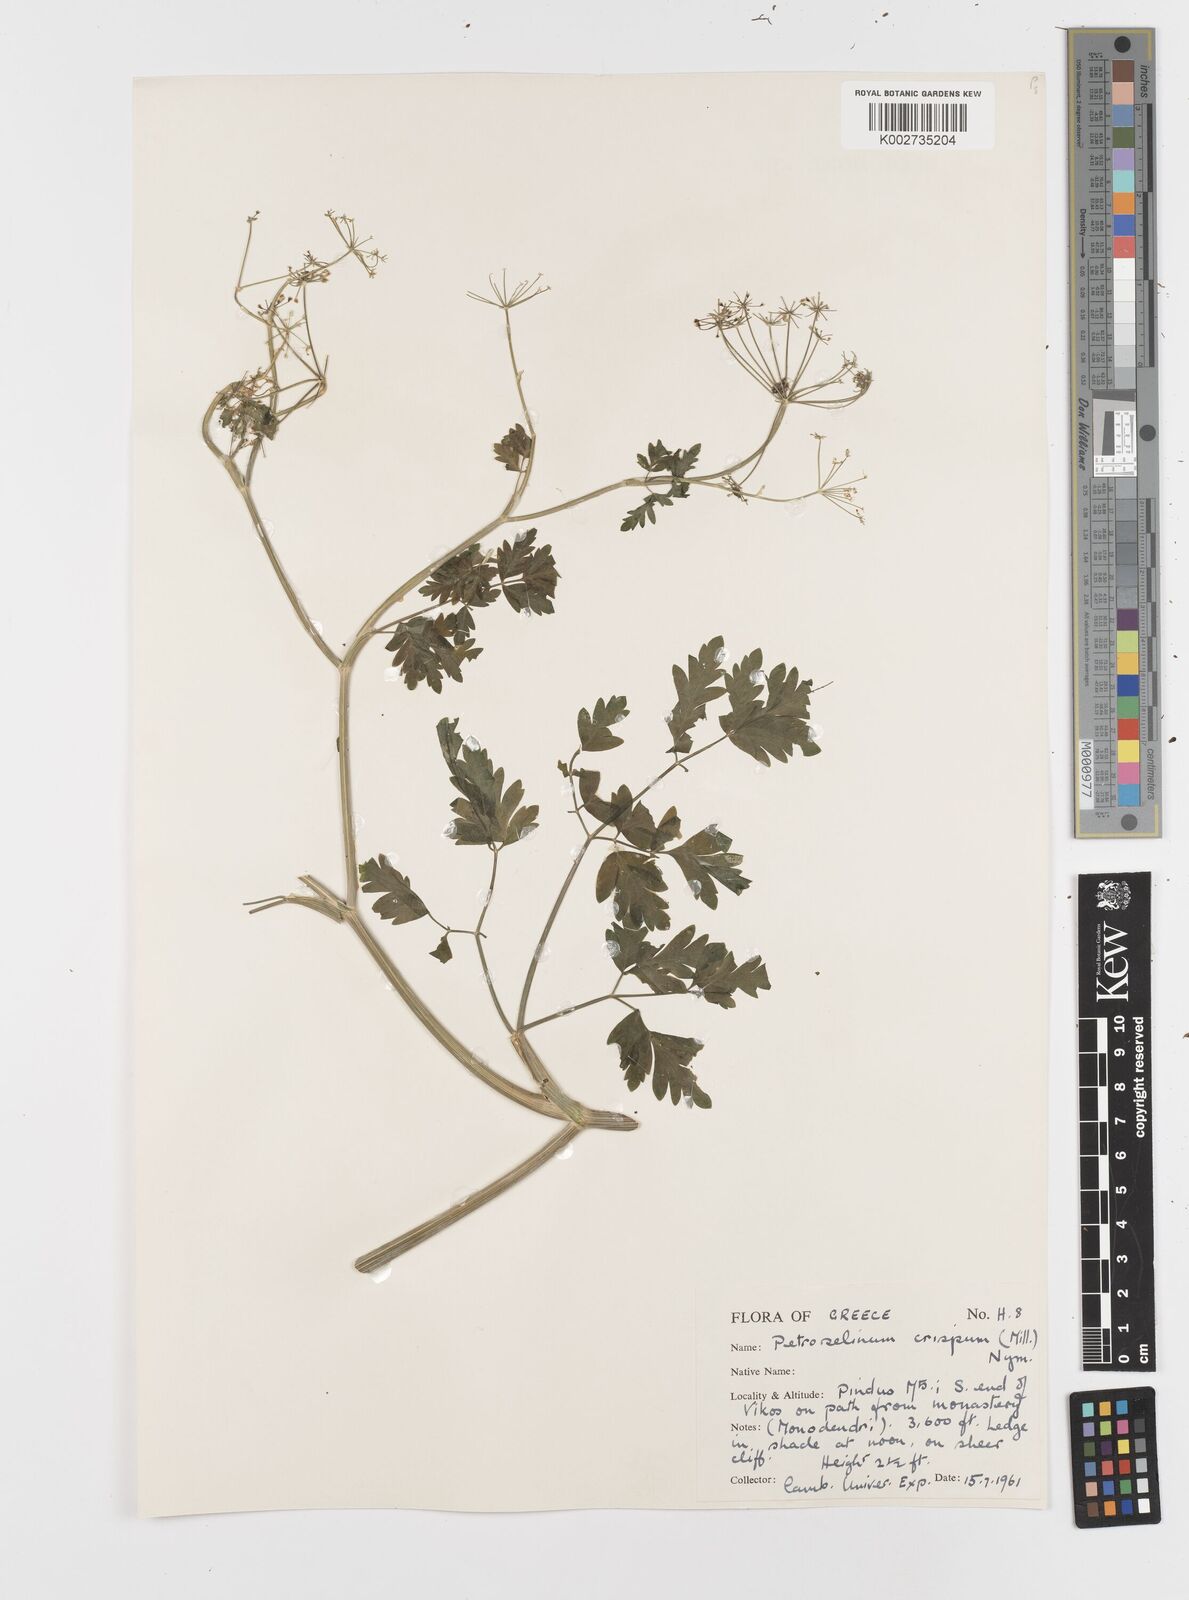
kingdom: Plantae
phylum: Tracheophyta
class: Magnoliopsida
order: Apiales
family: Apiaceae
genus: Petroselinum
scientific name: Petroselinum crispum
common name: Parsley
